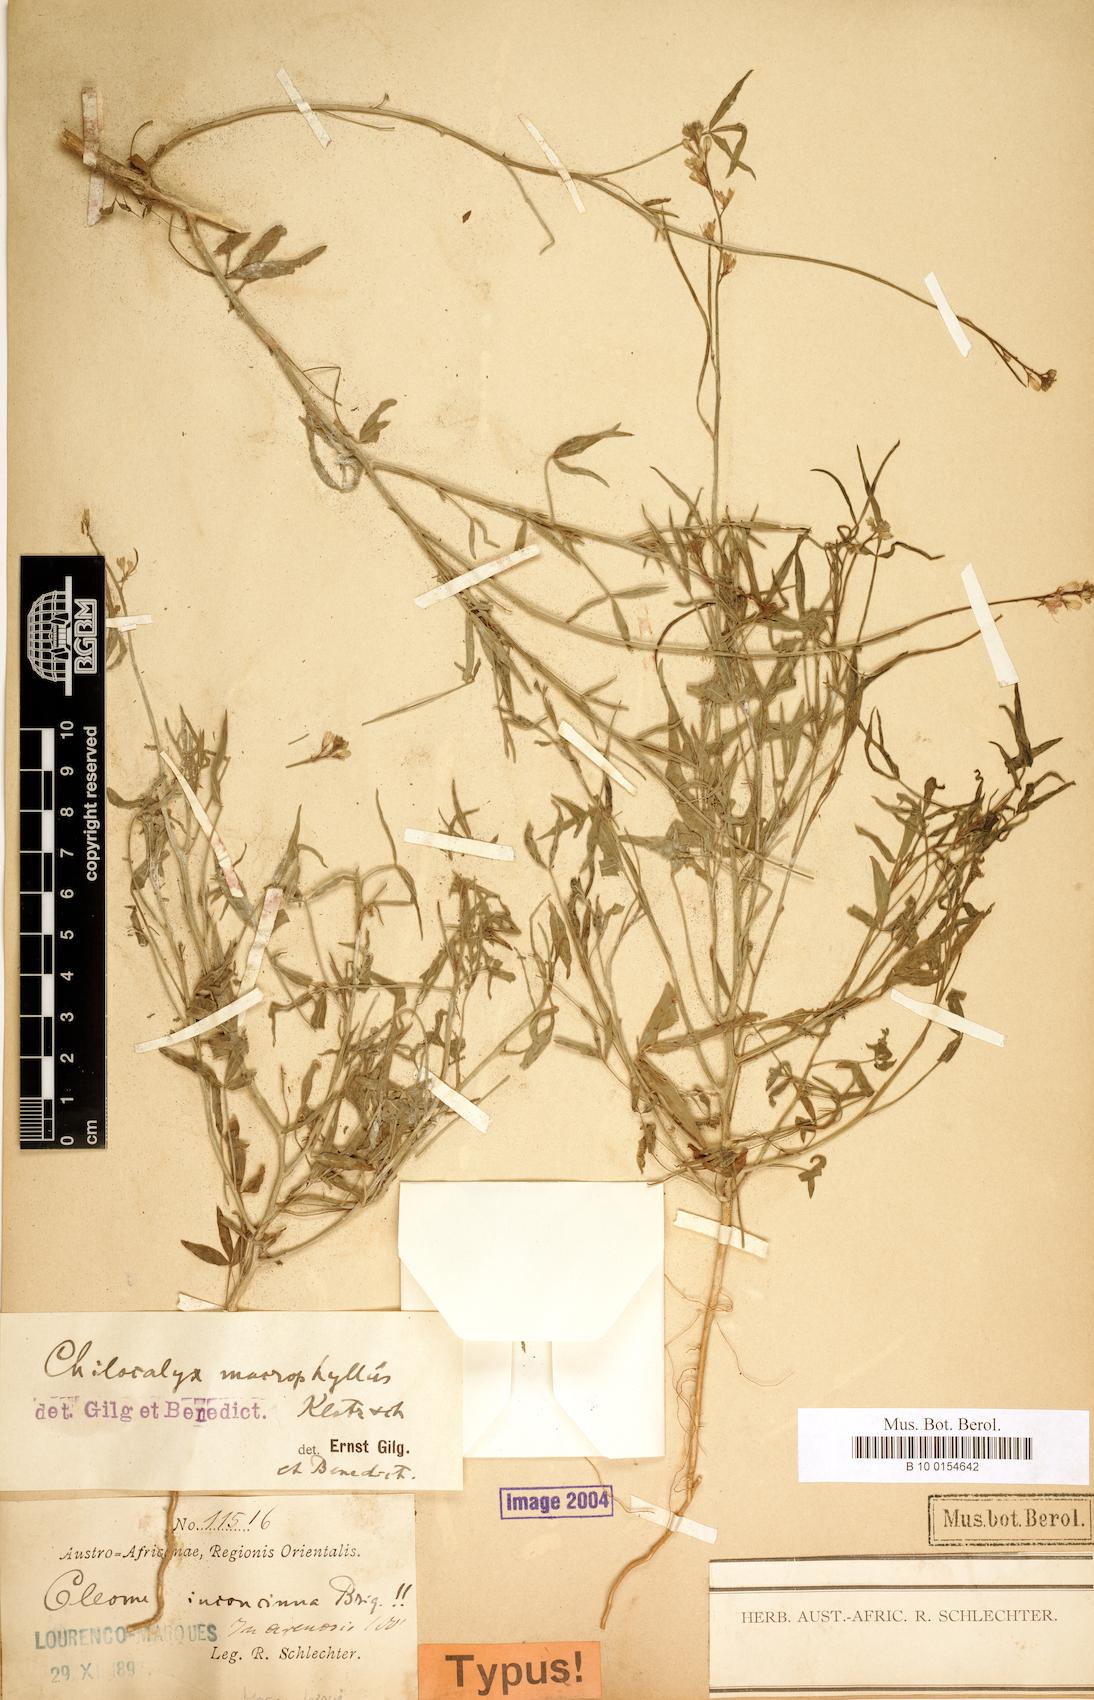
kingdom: Plantae
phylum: Tracheophyta
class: Magnoliopsida
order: Brassicales
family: Cleomaceae
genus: Sieruela
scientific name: Sieruela macrophylla
